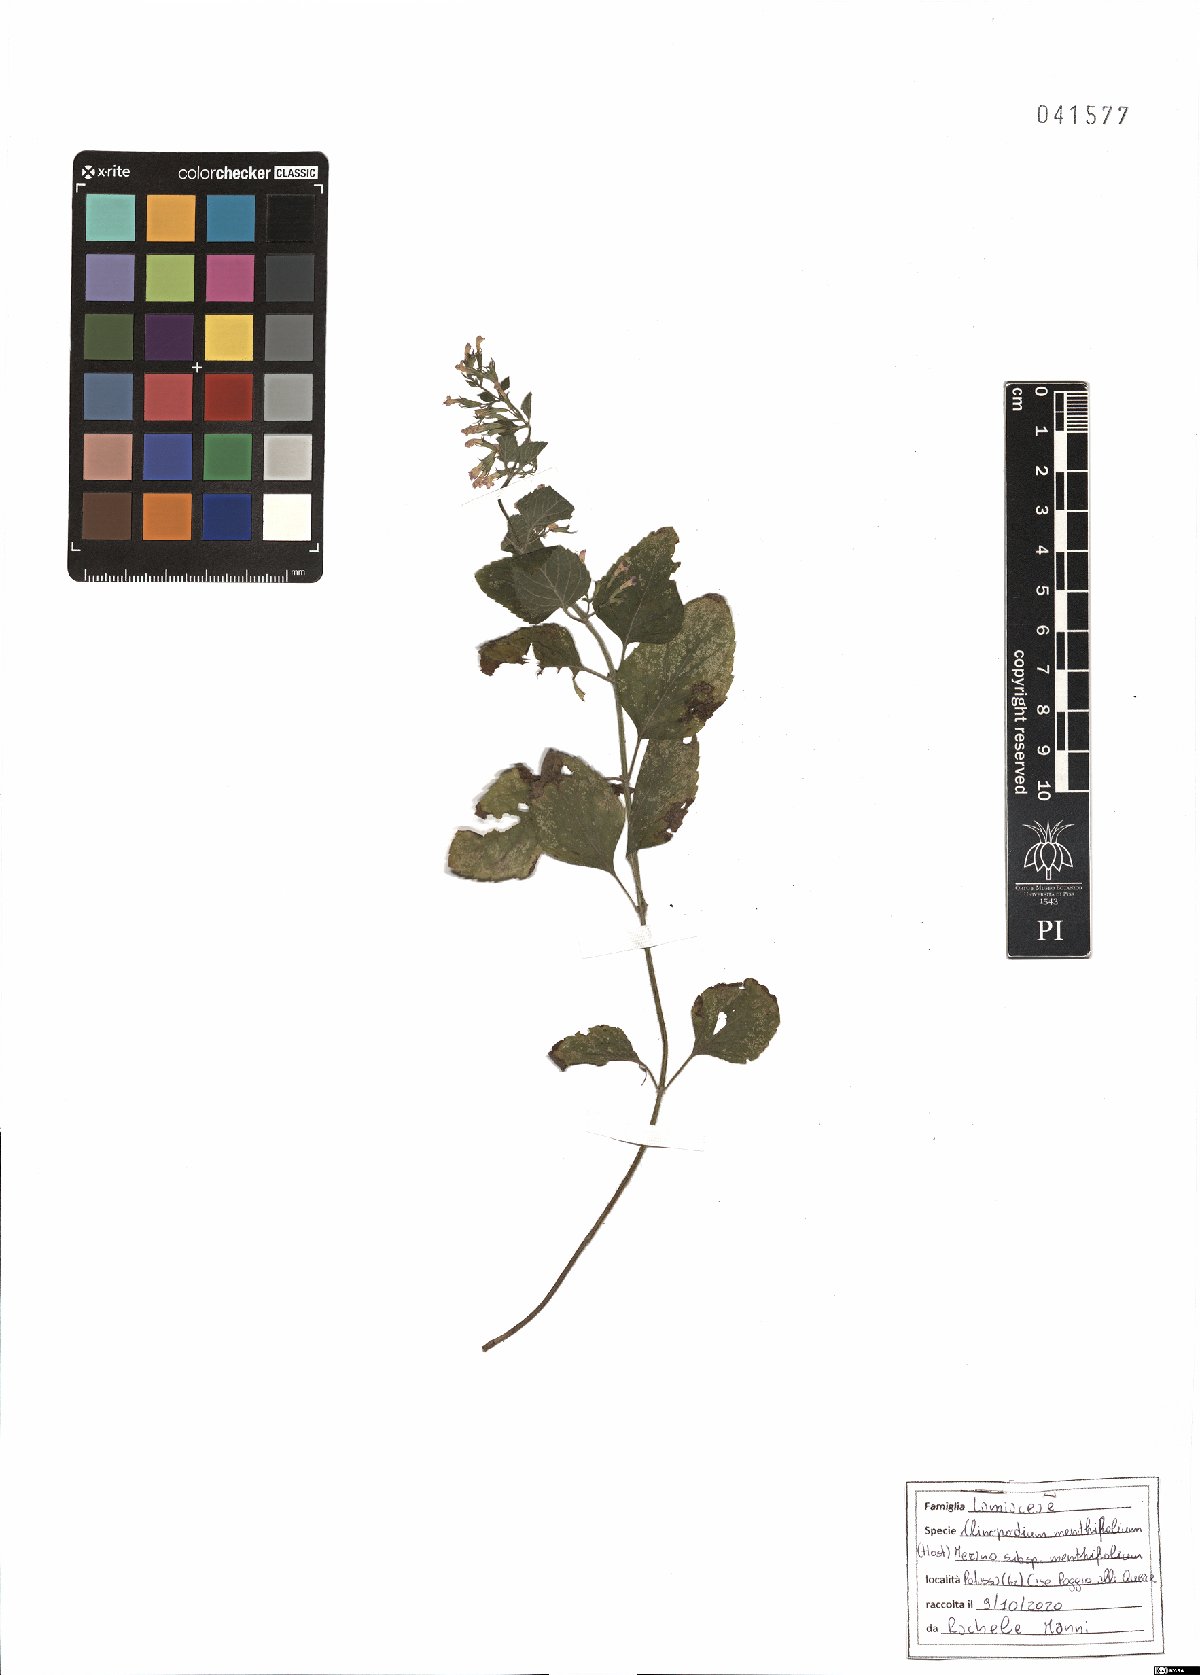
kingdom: Plantae
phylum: Tracheophyta
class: Magnoliopsida
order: Lamiales
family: Lamiaceae
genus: Clinopodium
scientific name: Clinopodium menthifolium
